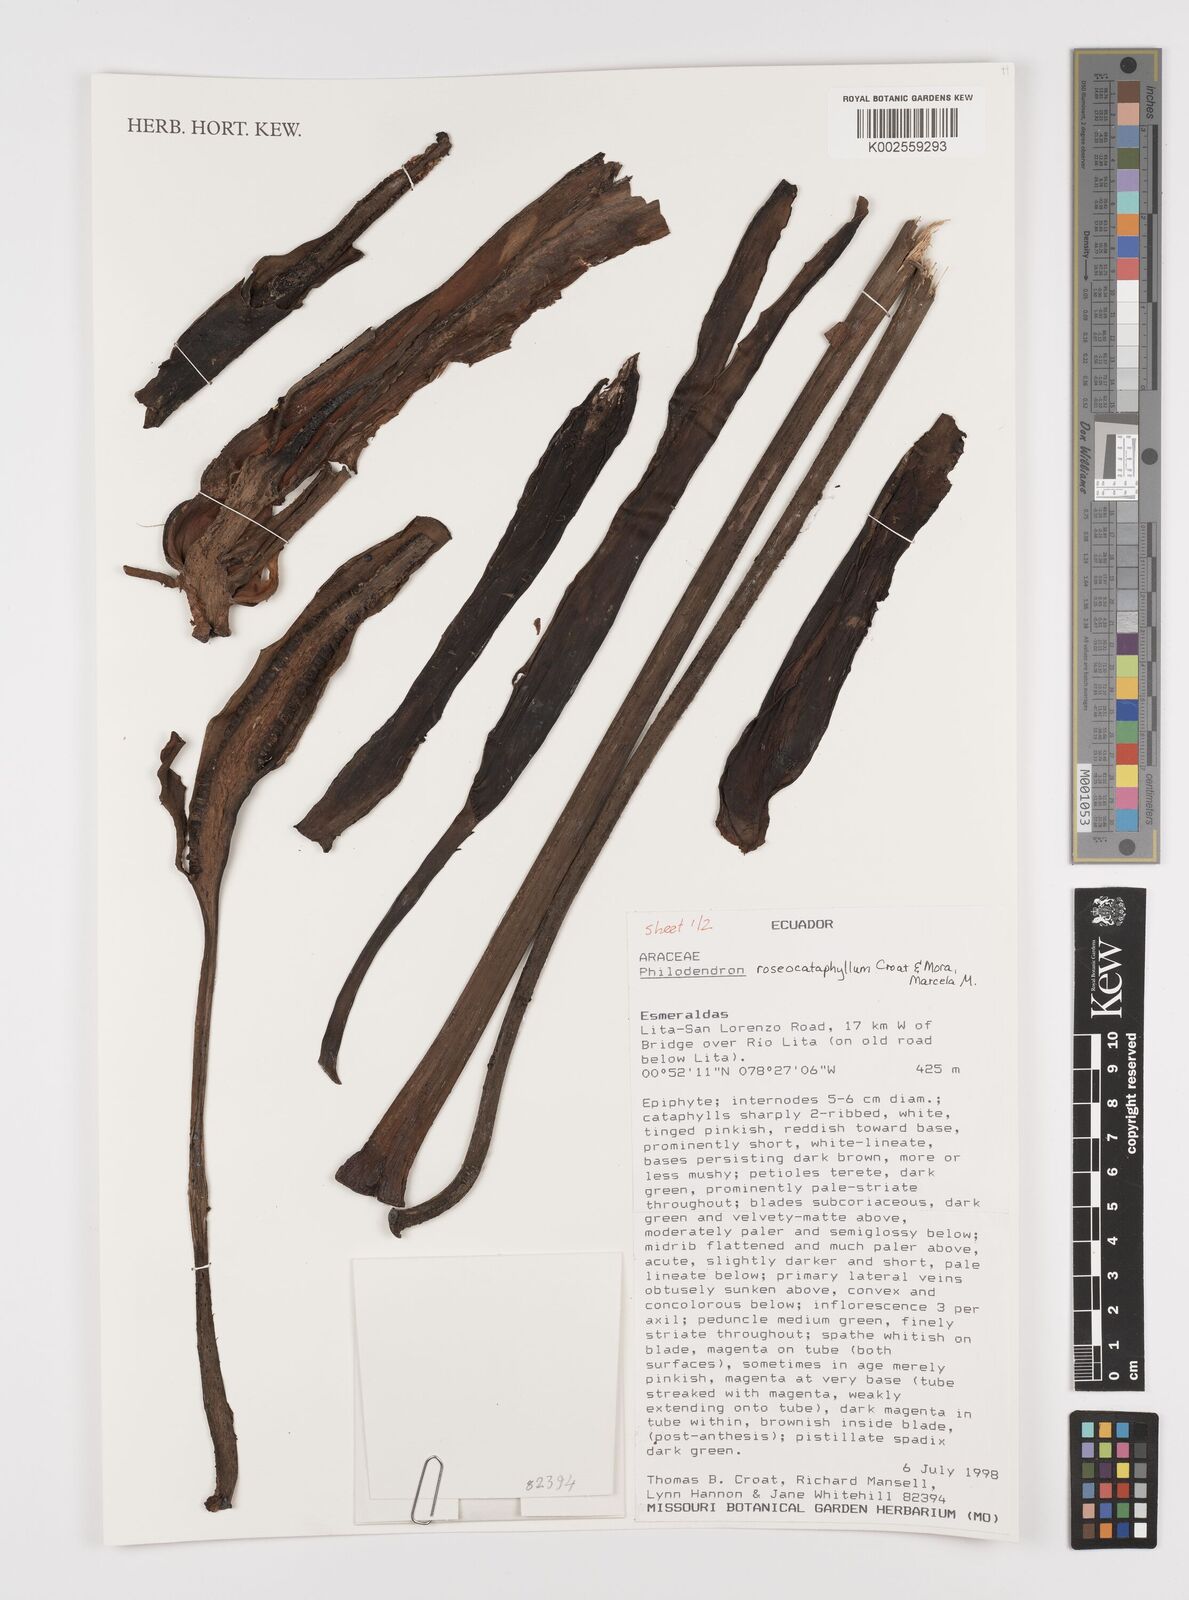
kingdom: Plantae
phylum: Tracheophyta
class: Liliopsida
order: Alismatales
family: Araceae
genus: Philodendron
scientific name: Philodendron roseocataphyllum
